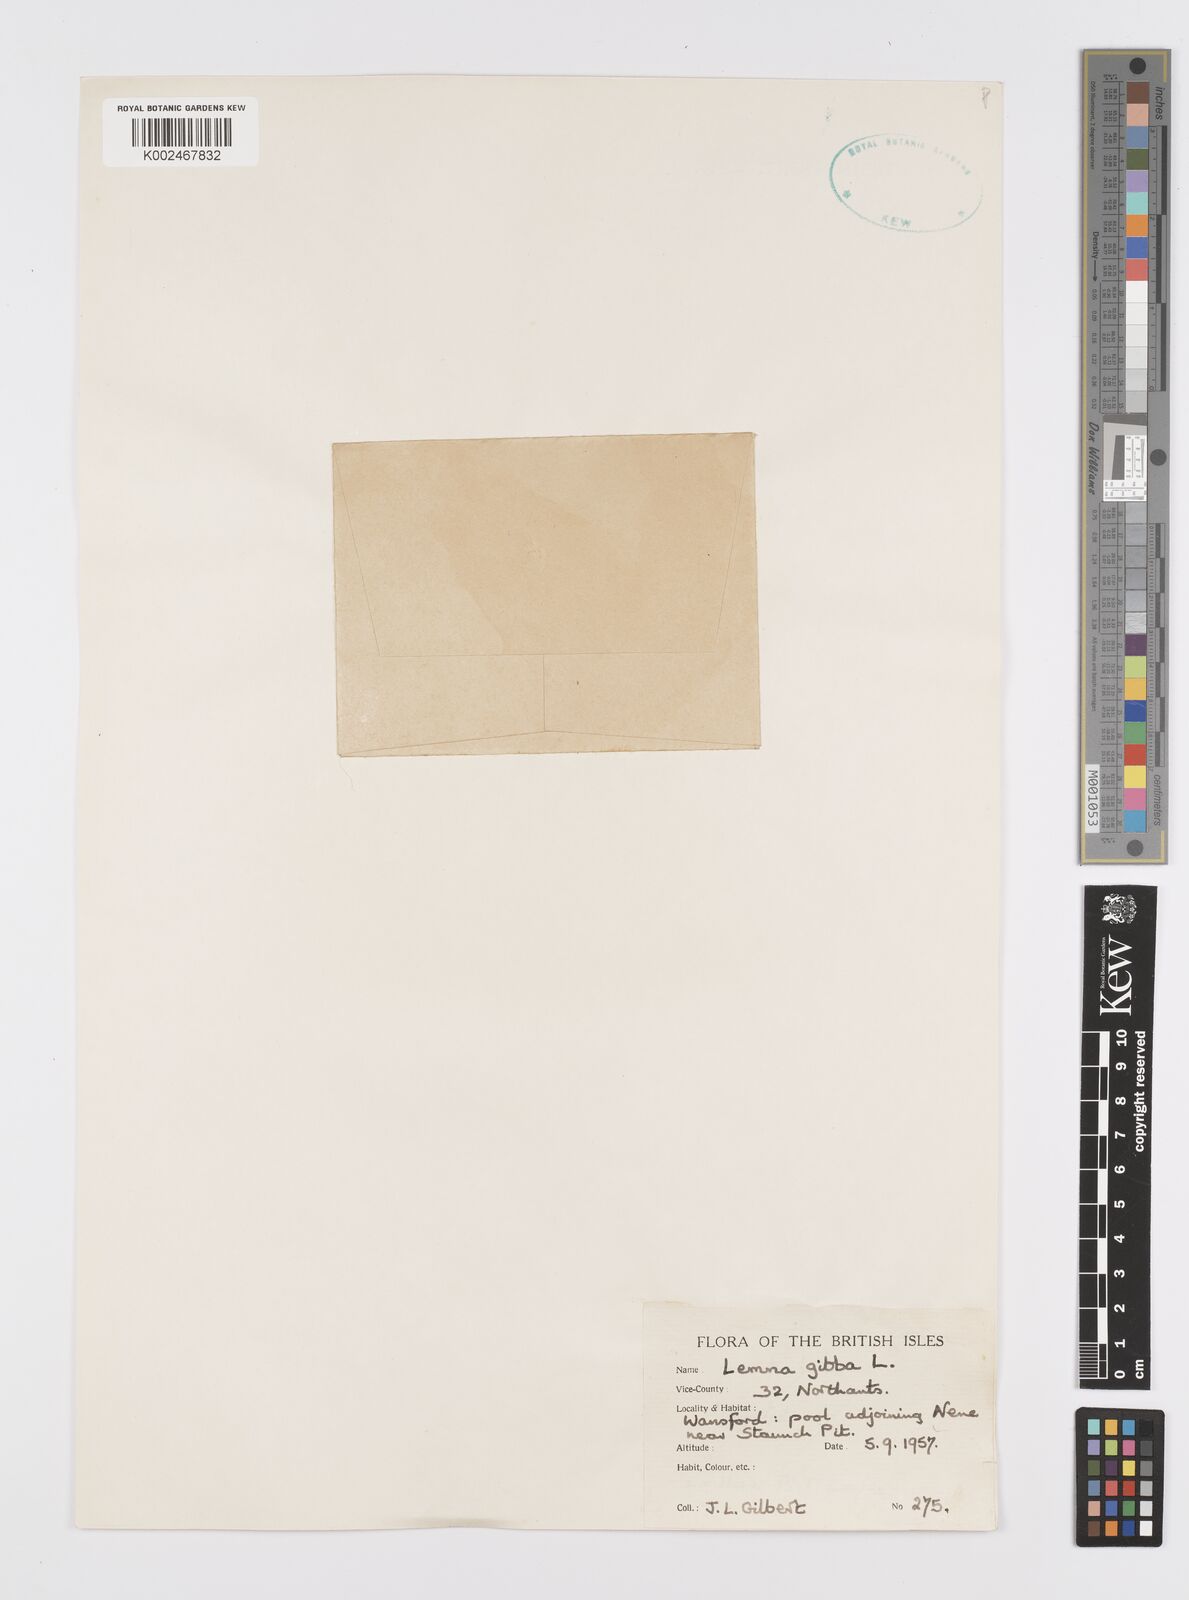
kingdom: Plantae
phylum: Tracheophyta
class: Liliopsida
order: Alismatales
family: Araceae
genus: Lemna
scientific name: Lemna gibba
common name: Fat duckweed
